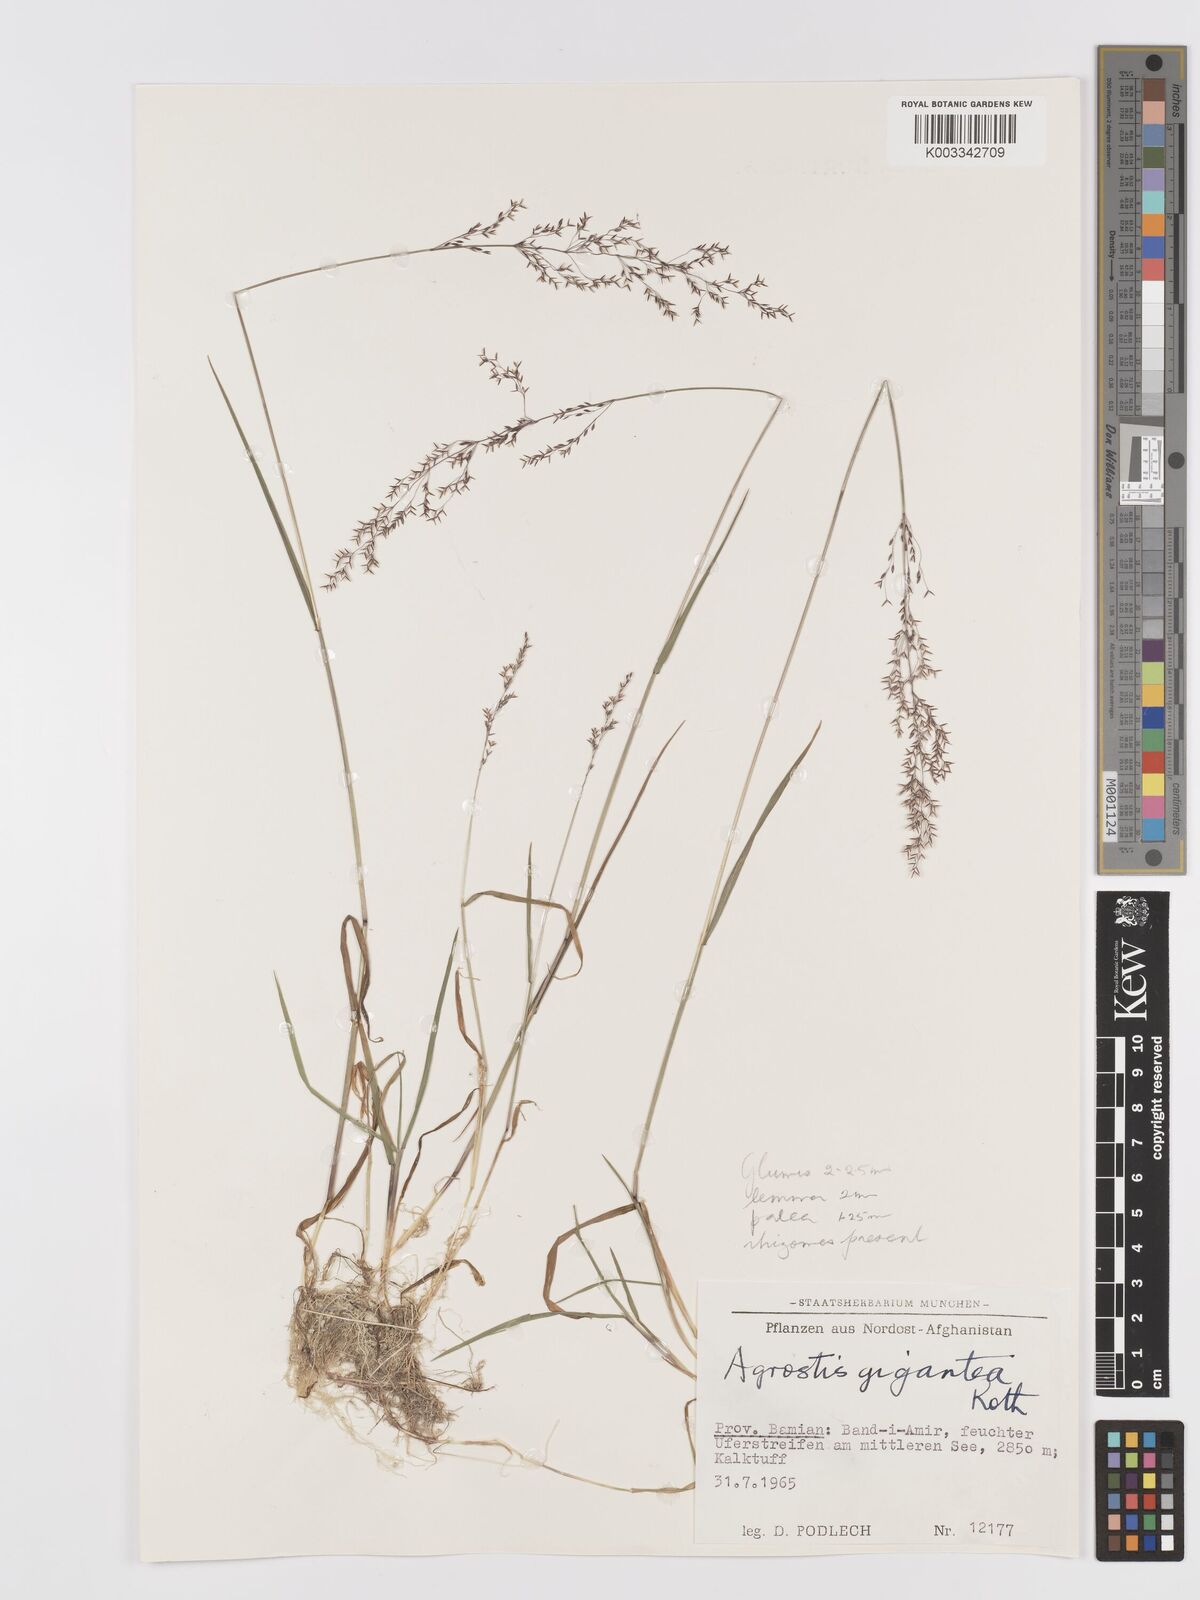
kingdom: Plantae
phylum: Tracheophyta
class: Liliopsida
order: Poales
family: Poaceae
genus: Agrostis
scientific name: Agrostis gigantea
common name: Black bent
